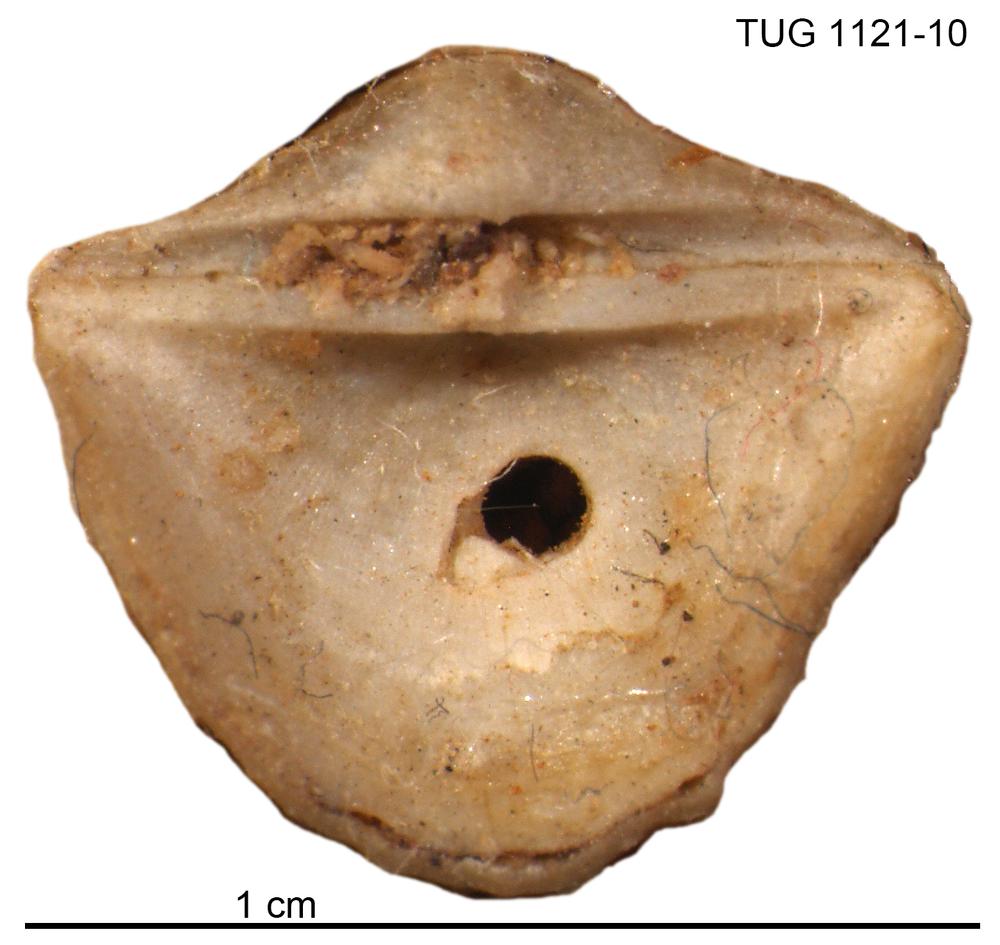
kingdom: Animalia
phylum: Brachiopoda
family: Leptestiidae
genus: Bilobia
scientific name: Bilobia
